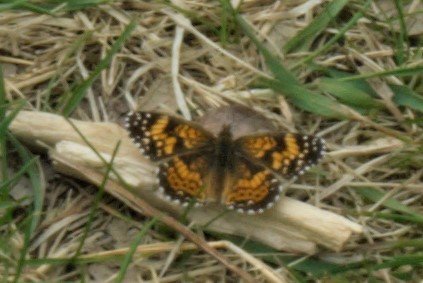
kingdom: Animalia
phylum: Arthropoda
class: Insecta
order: Lepidoptera
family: Nymphalidae
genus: Chlosyne
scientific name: Chlosyne gorgone
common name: Gorgone Checkerspot
